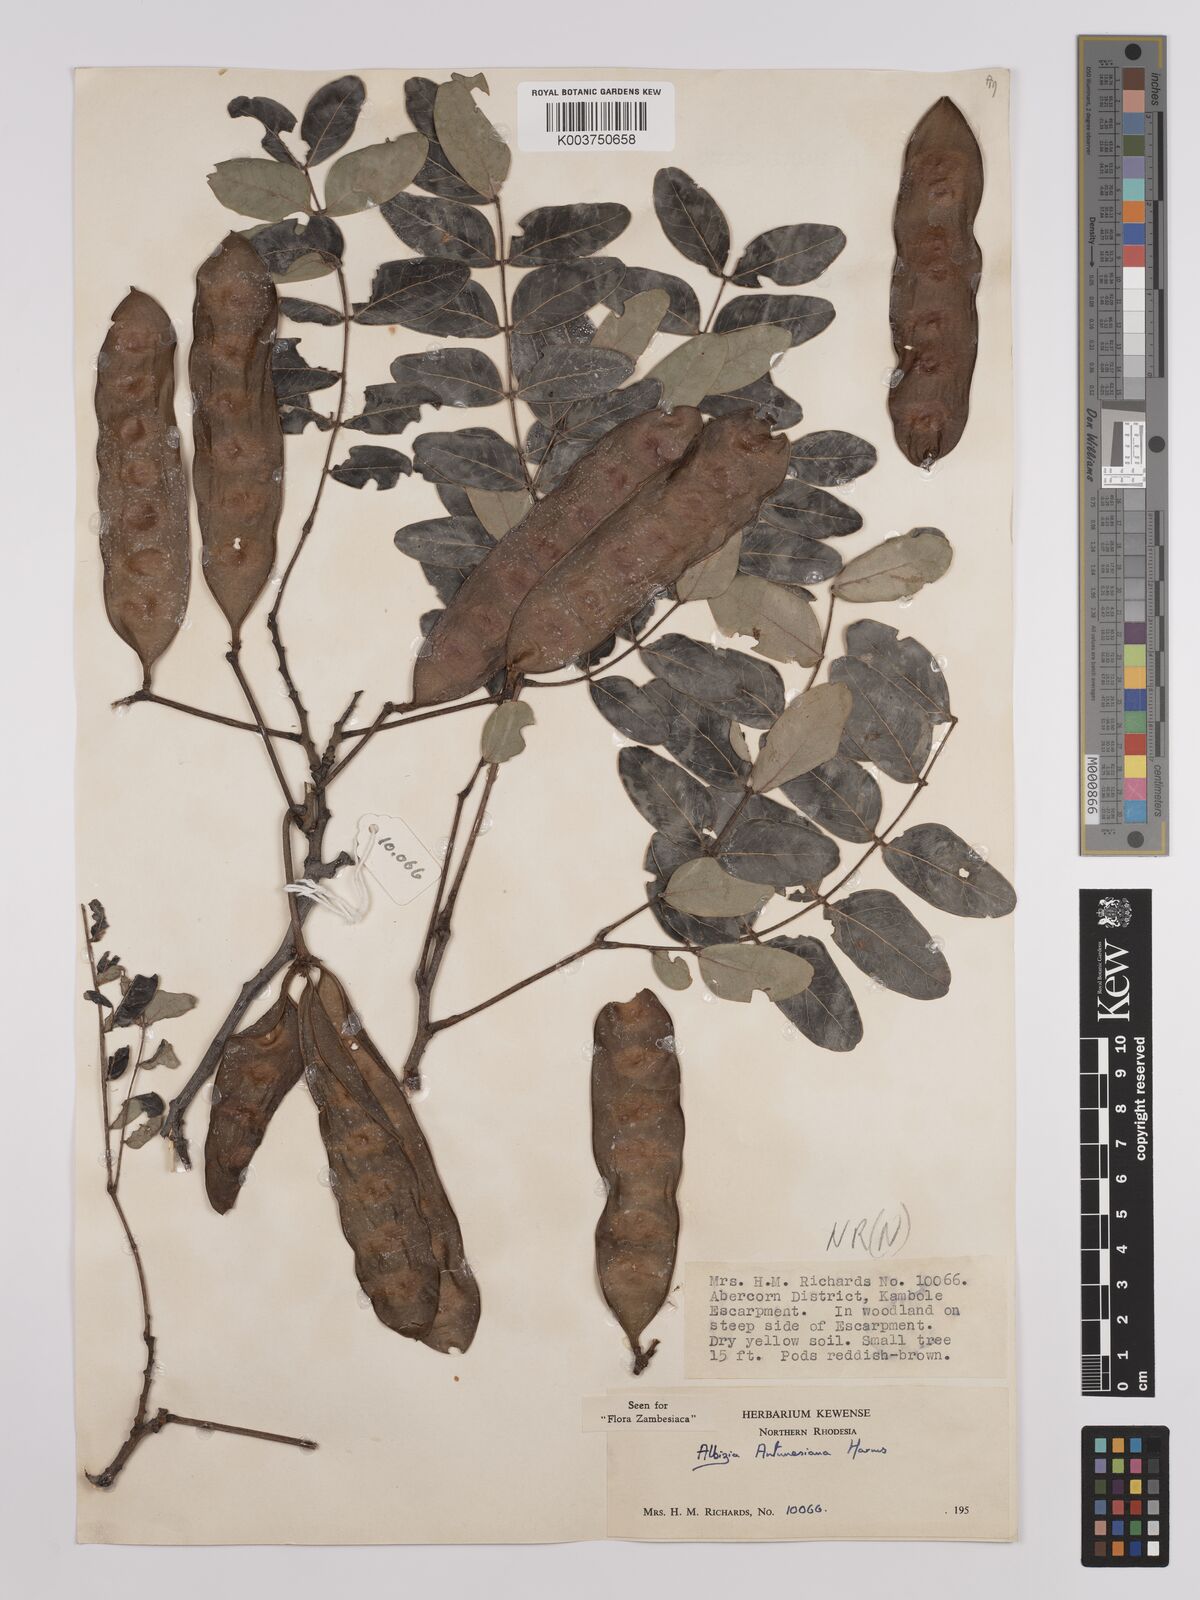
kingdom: Plantae
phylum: Tracheophyta
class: Magnoliopsida
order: Fabales
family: Fabaceae
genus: Albizia
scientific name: Albizia antunesiana
